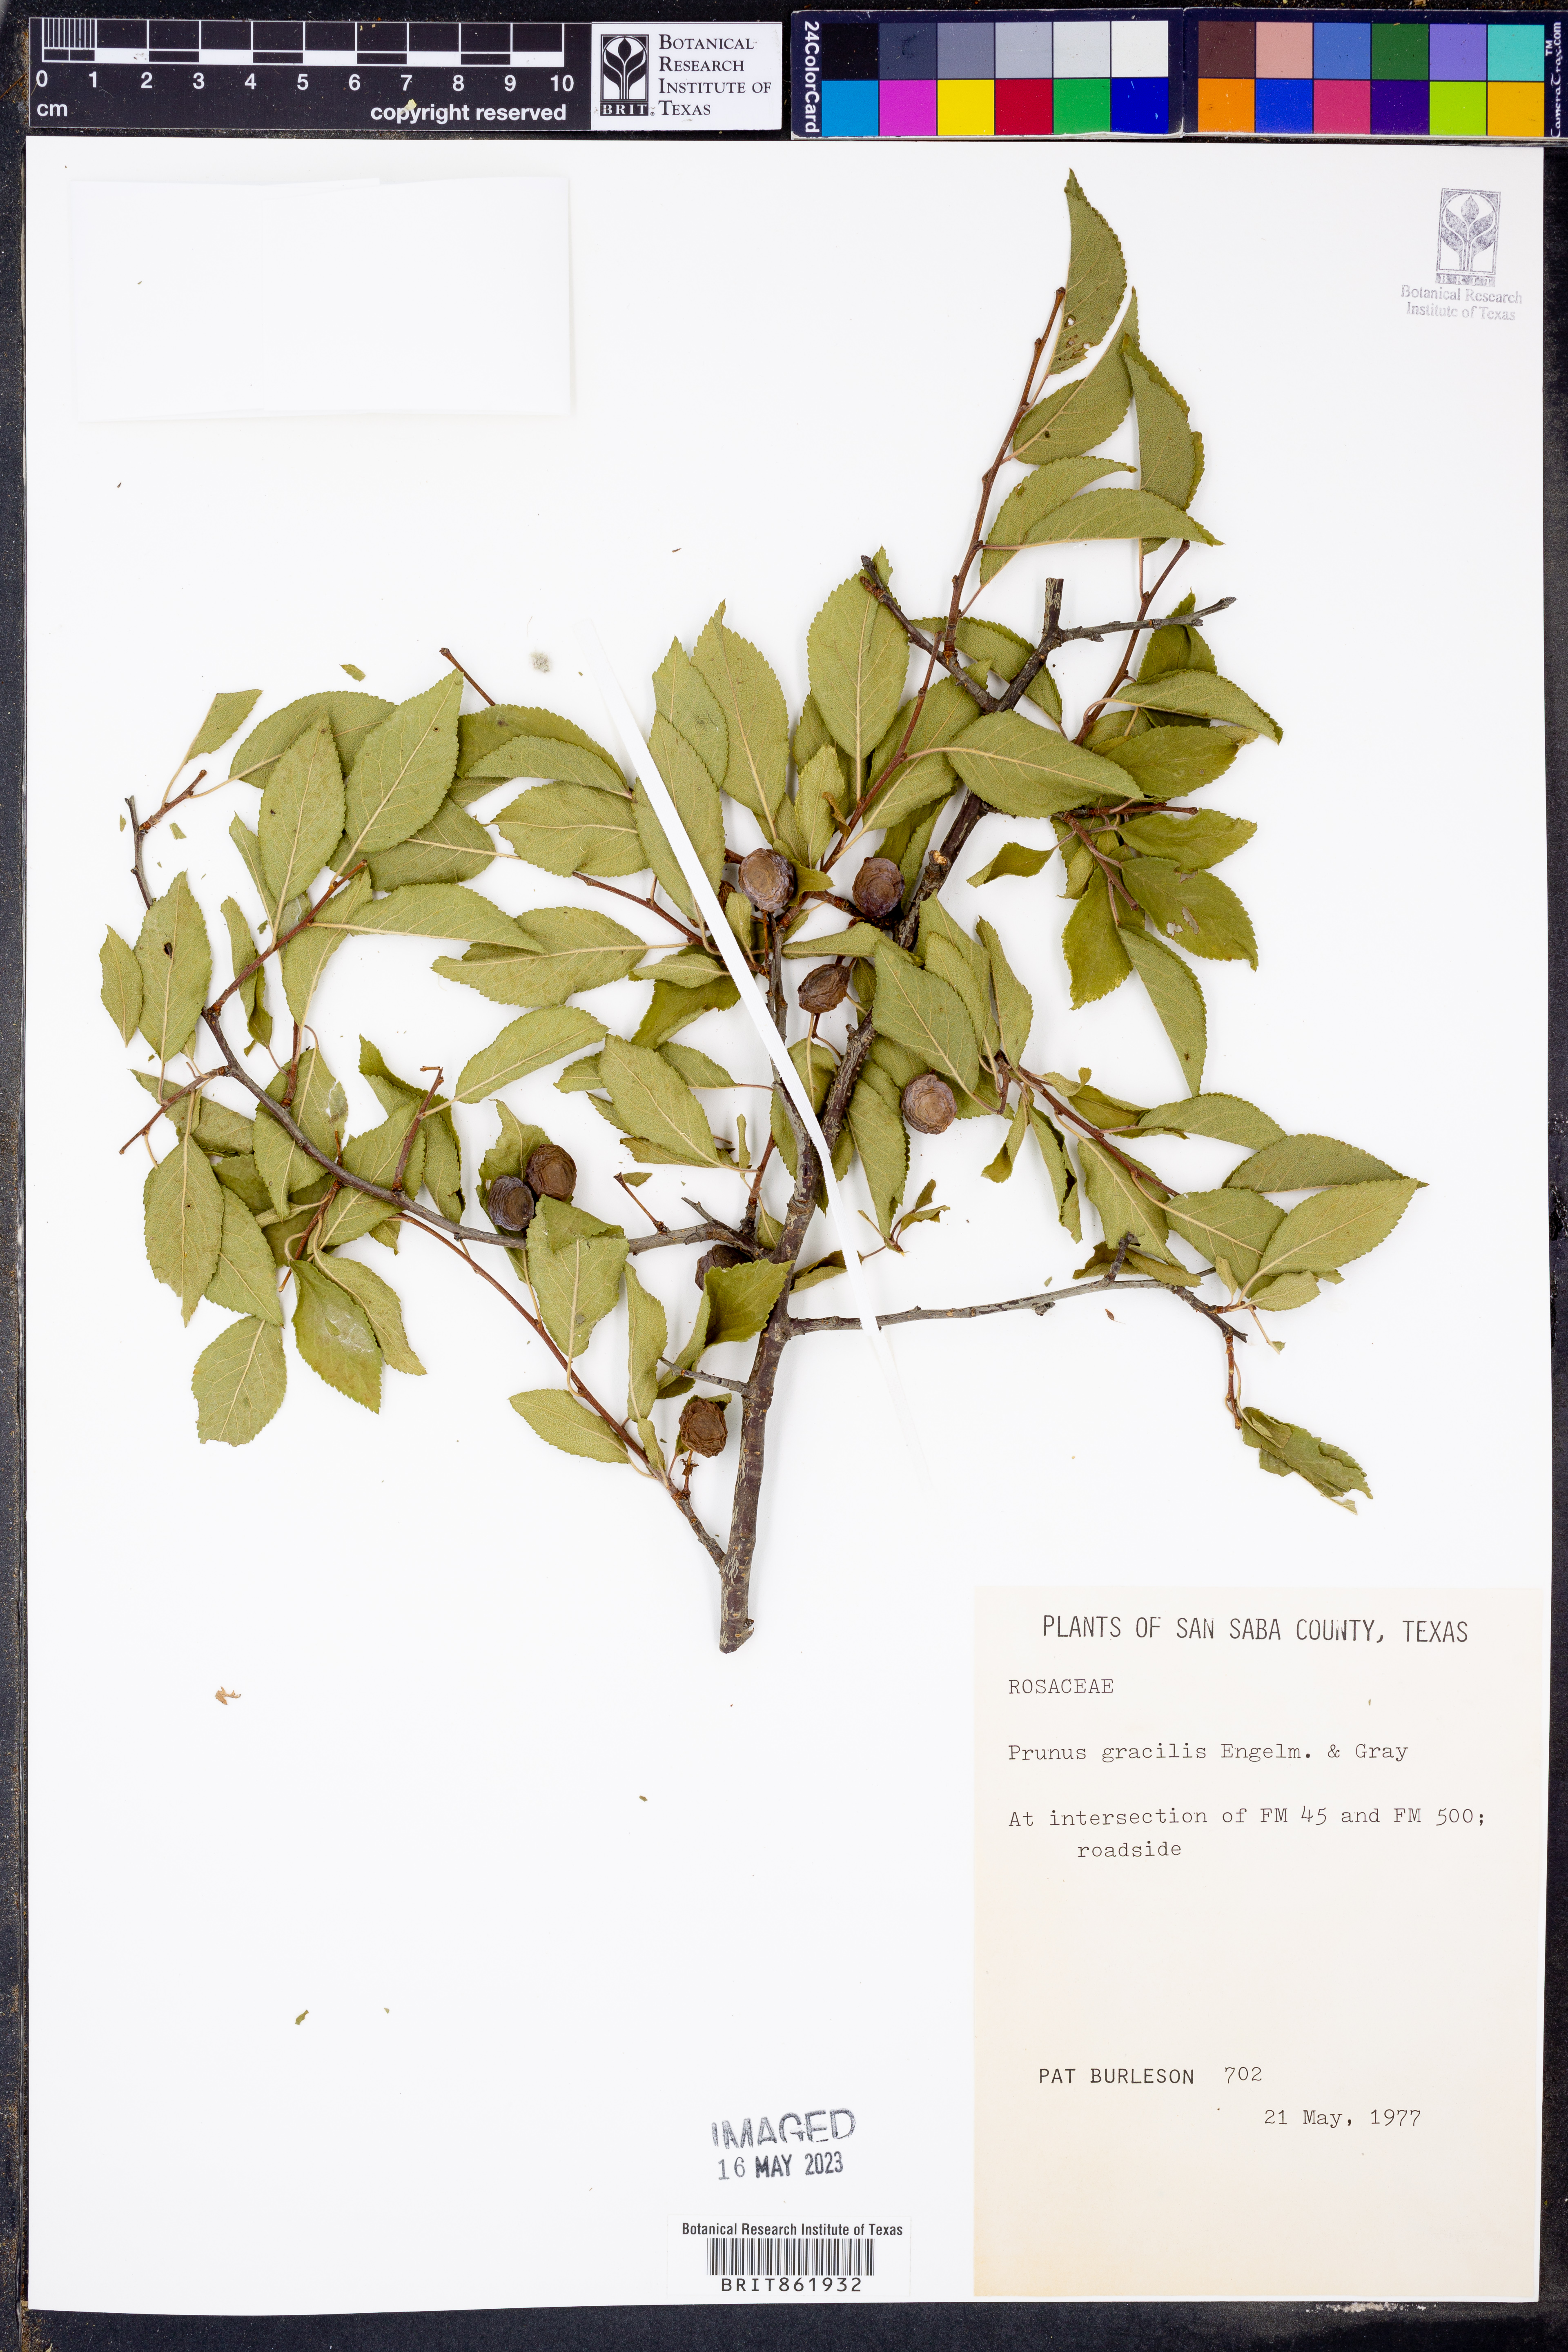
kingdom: Plantae
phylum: Tracheophyta
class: Magnoliopsida
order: Rosales
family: Rosaceae
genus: Prunus
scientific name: Prunus gracilis
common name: Oklahoma plum
